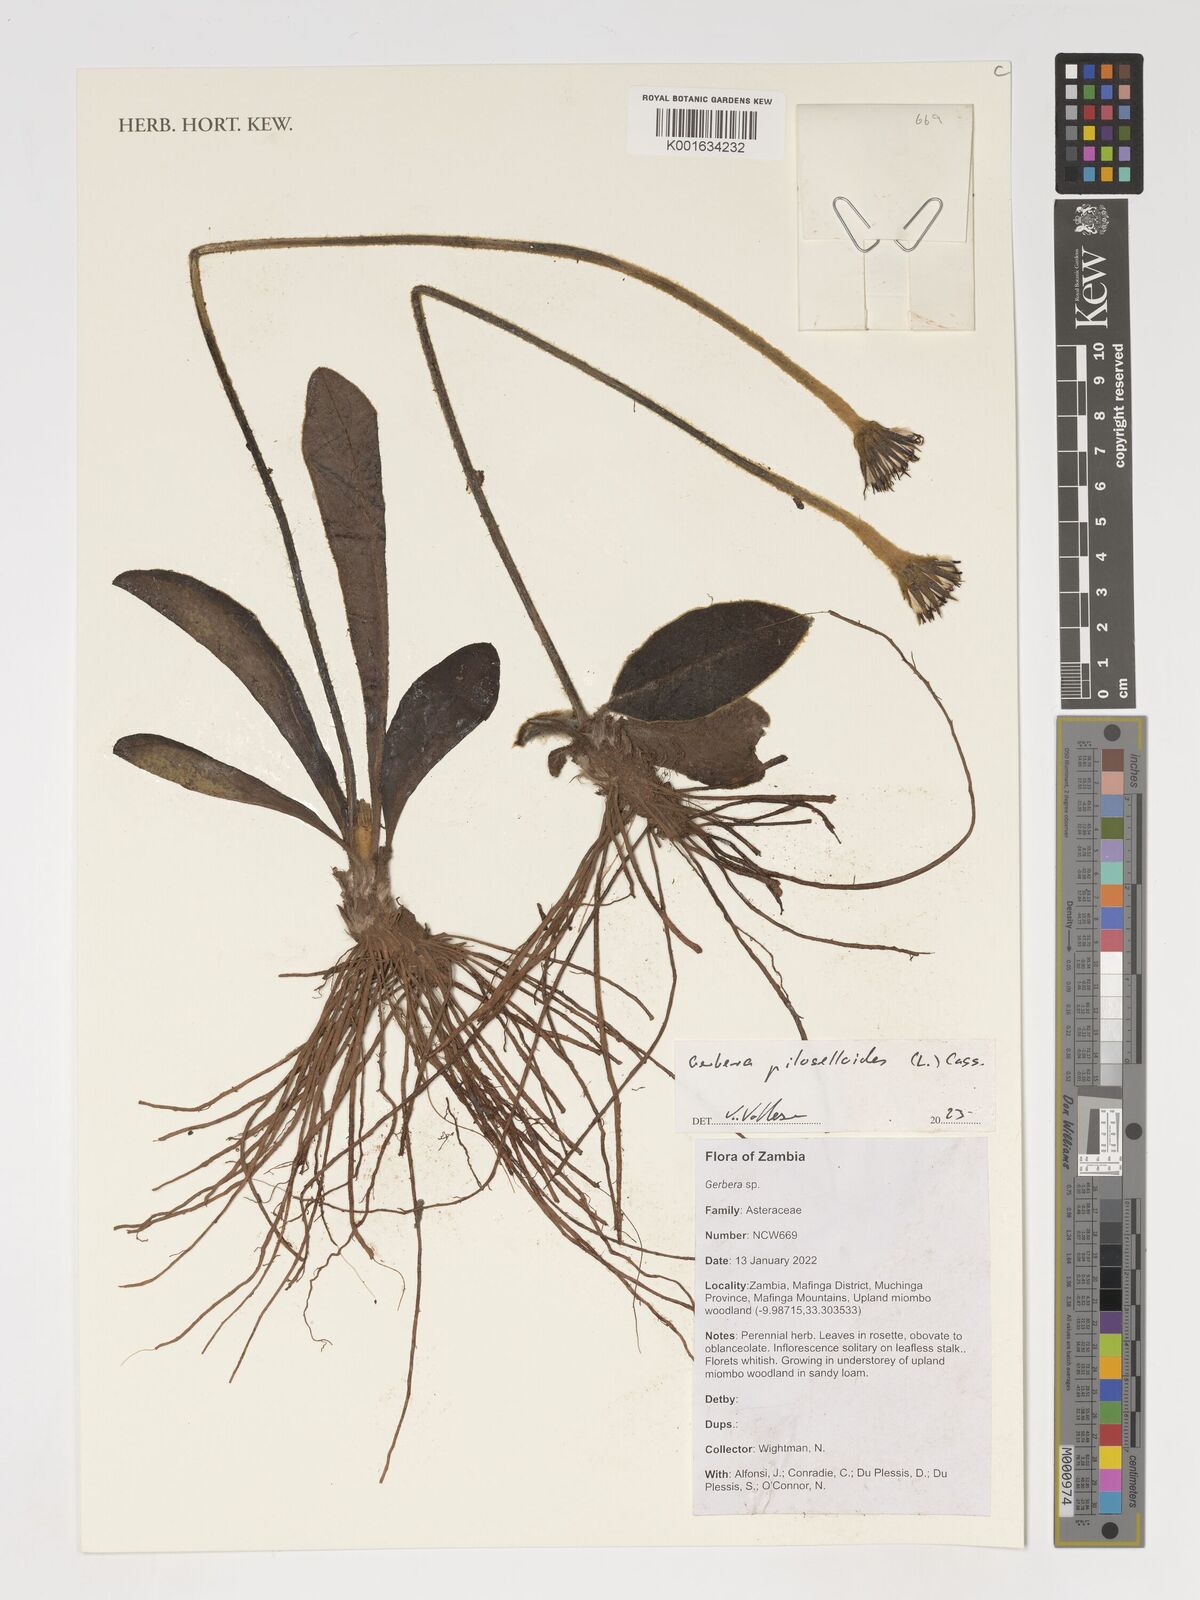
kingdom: Plantae
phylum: Tracheophyta
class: Magnoliopsida
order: Asterales
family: Asteraceae
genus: Piloselloides
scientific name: Piloselloides hirsuta
